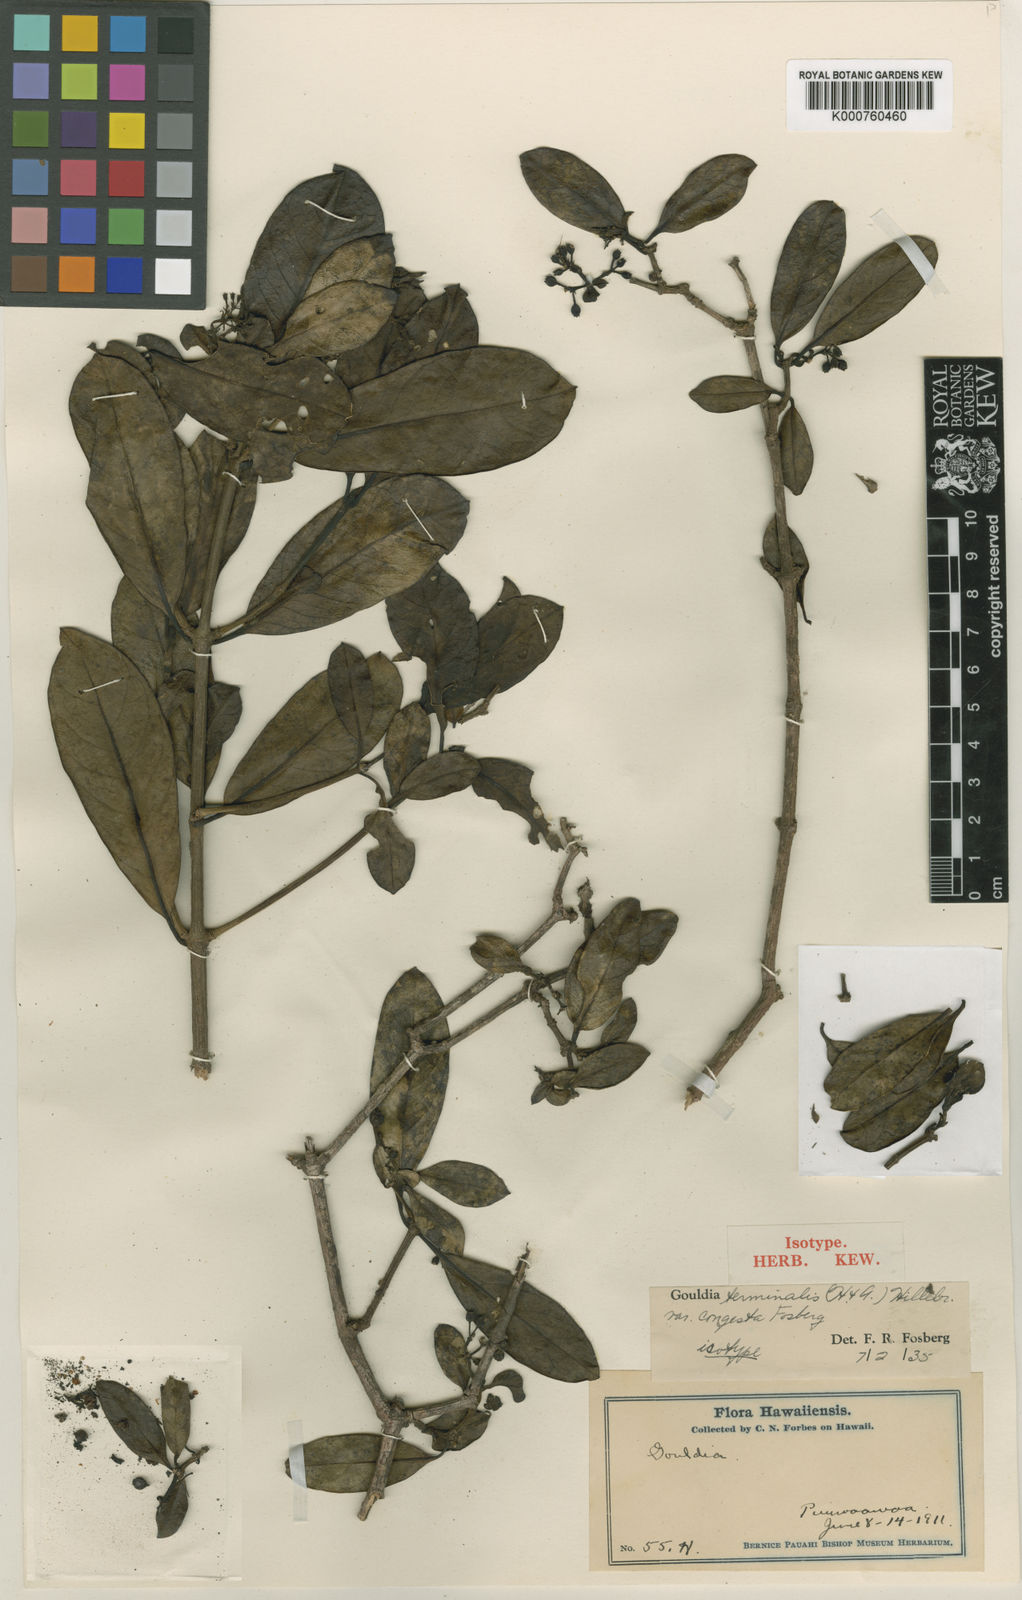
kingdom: Plantae
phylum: Tracheophyta
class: Magnoliopsida
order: Gentianales
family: Rubiaceae
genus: Kadua
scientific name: Kadua affinis
